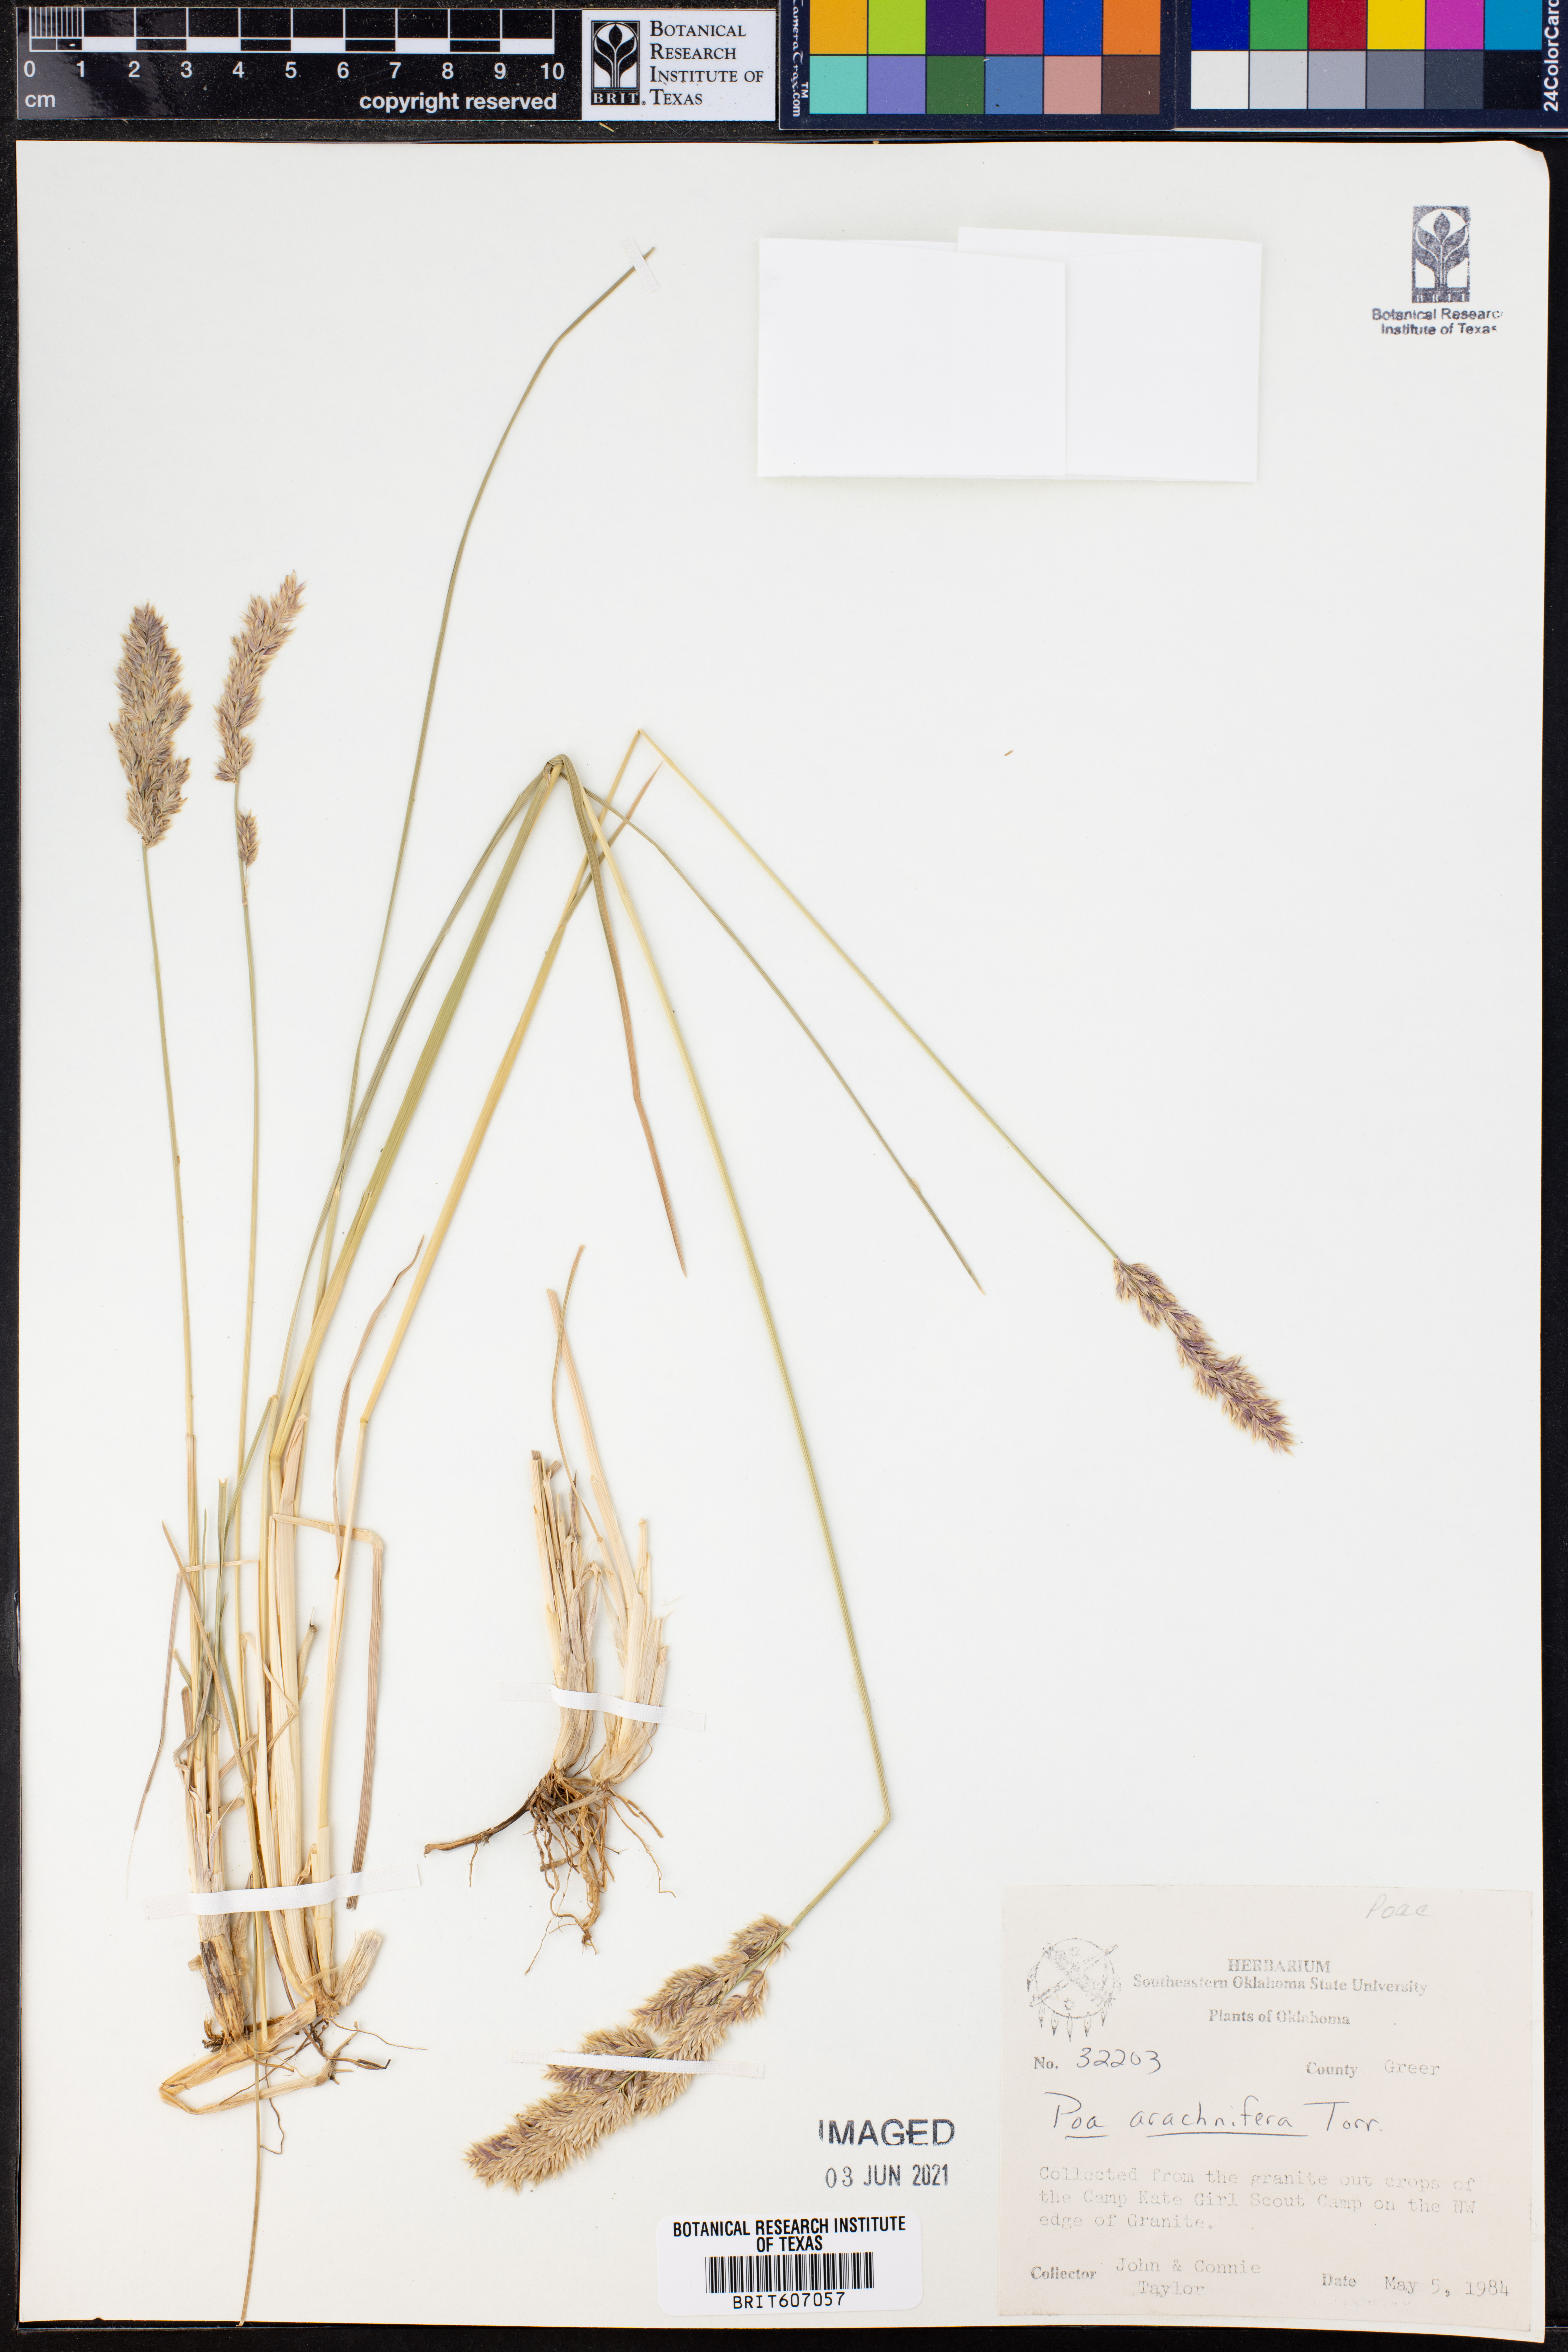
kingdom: Plantae
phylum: Tracheophyta
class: Liliopsida
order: Poales
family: Poaceae
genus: Poa
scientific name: Poa arachnifera
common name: Texas bluegrass
